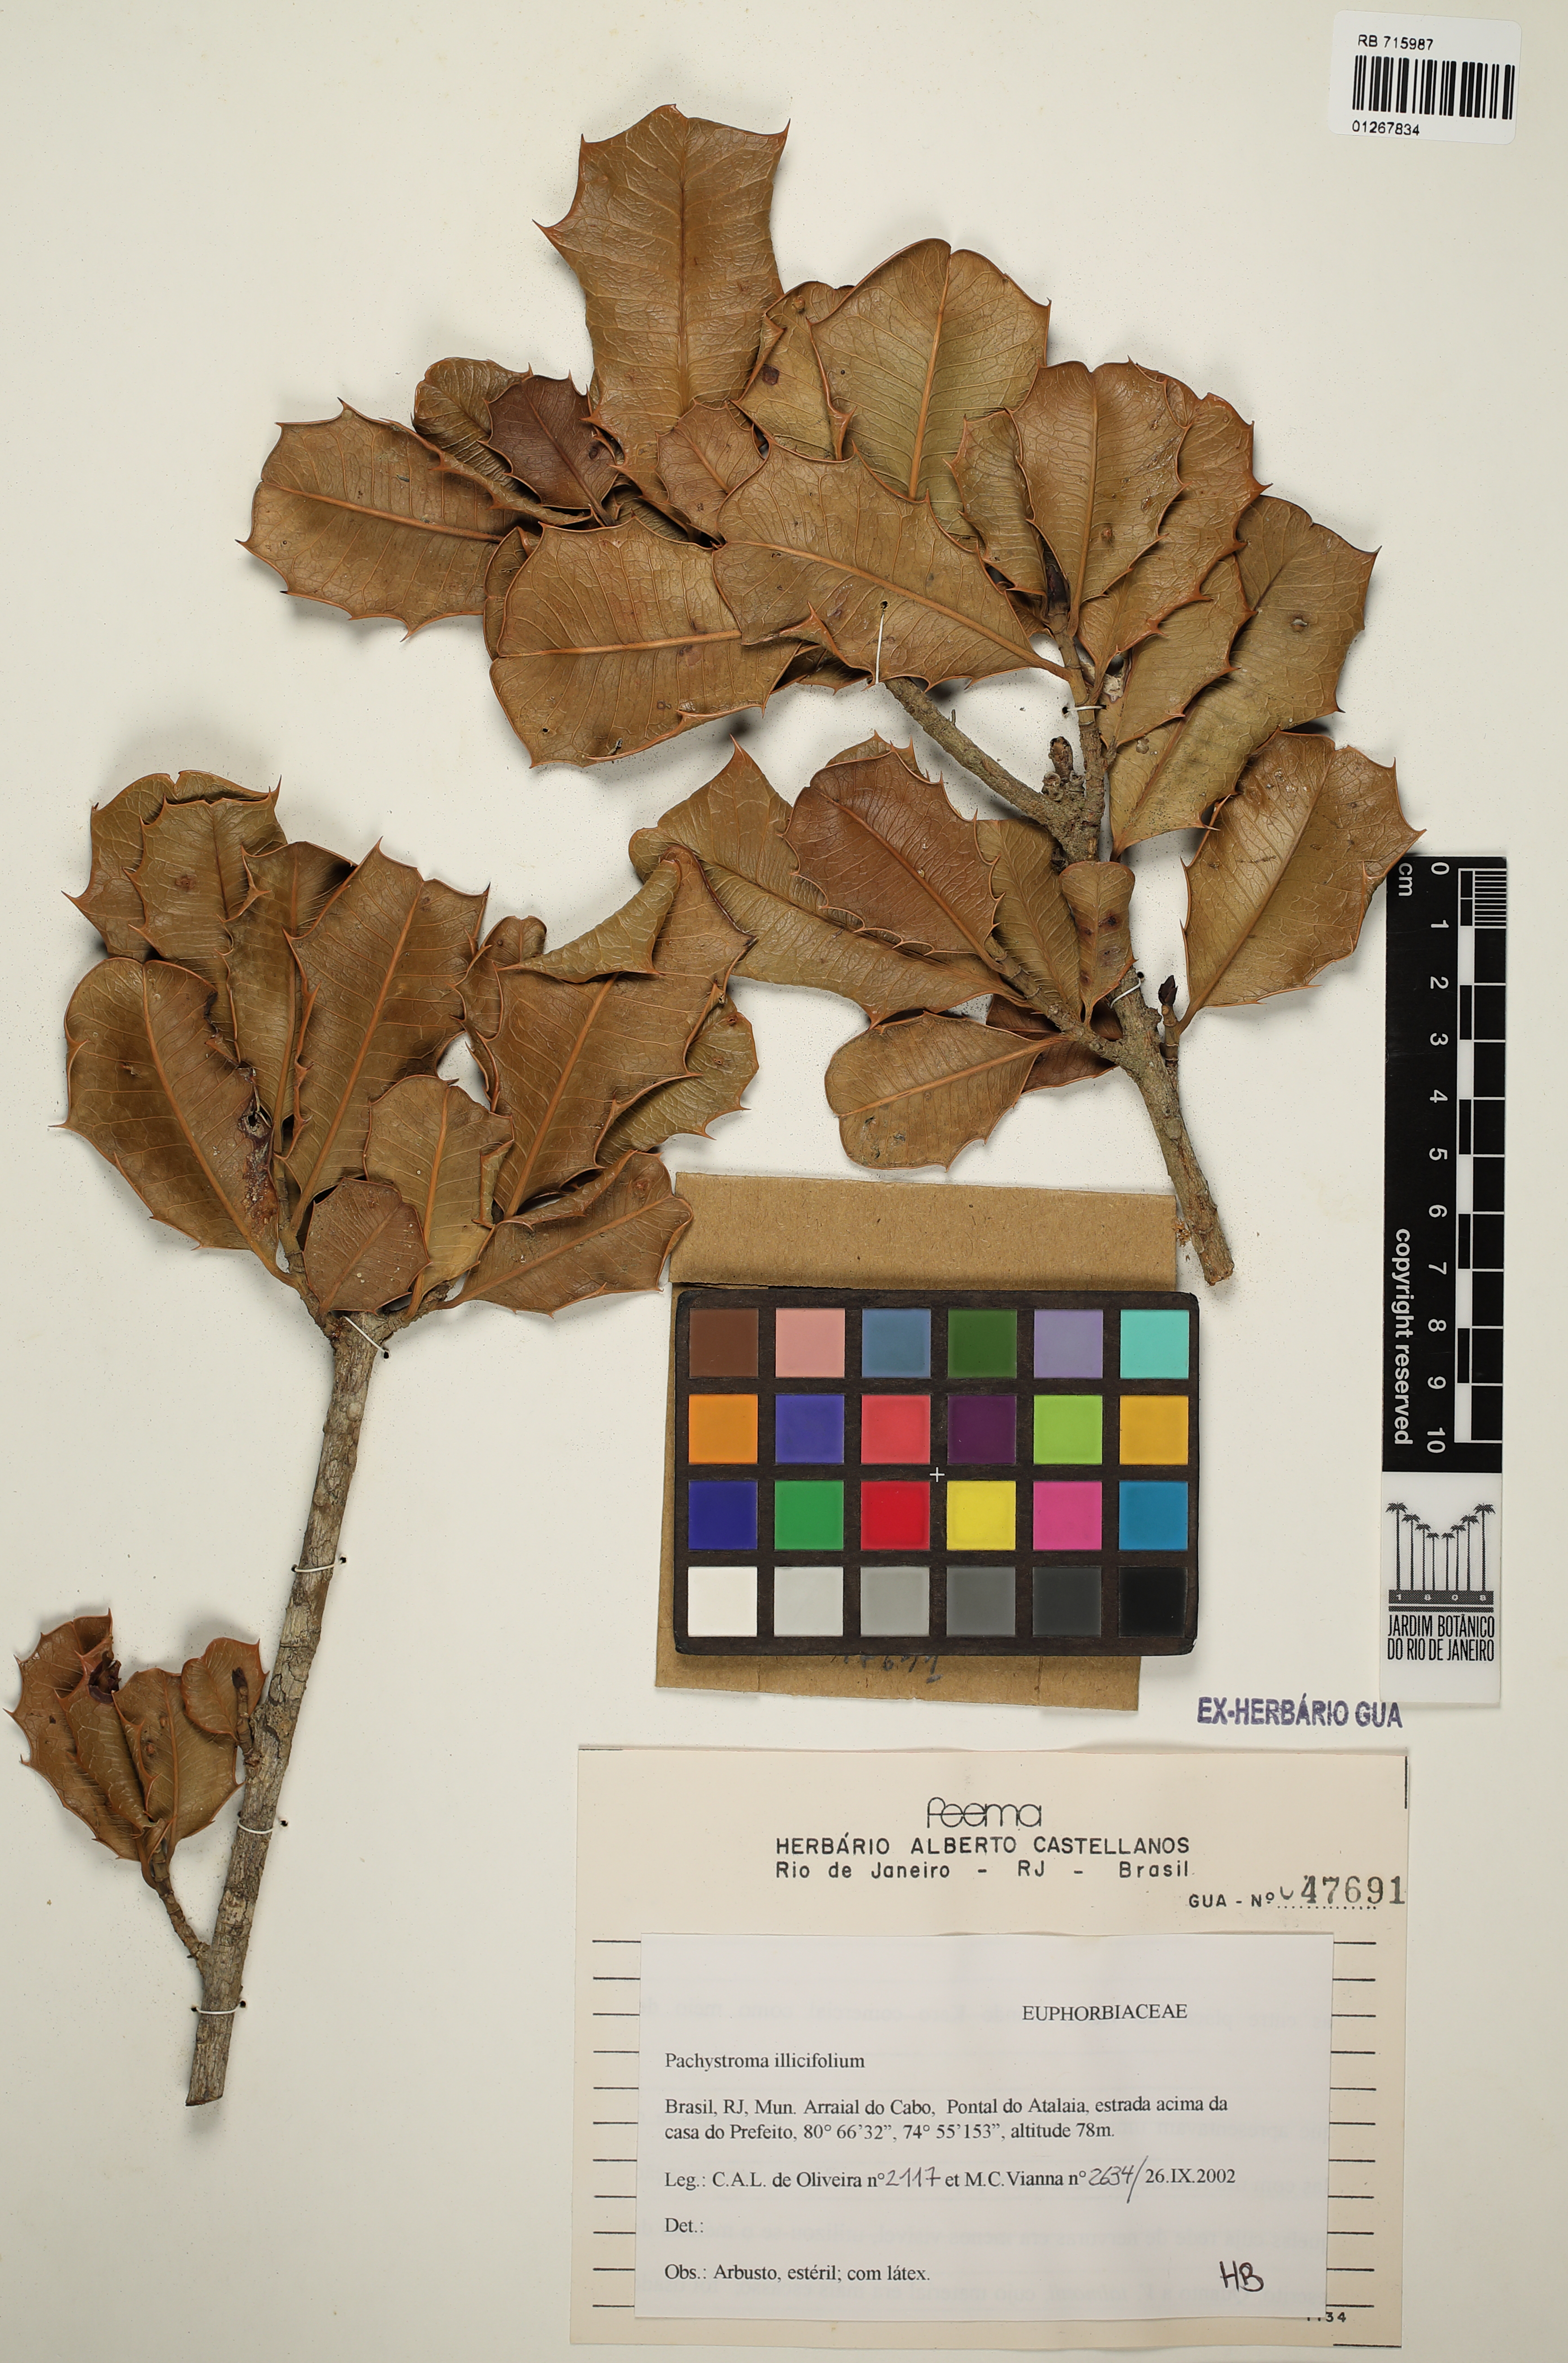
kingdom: Plantae
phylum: Tracheophyta
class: Magnoliopsida
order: Malpighiales
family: Euphorbiaceae
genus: Pachystroma
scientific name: Pachystroma longifolium
